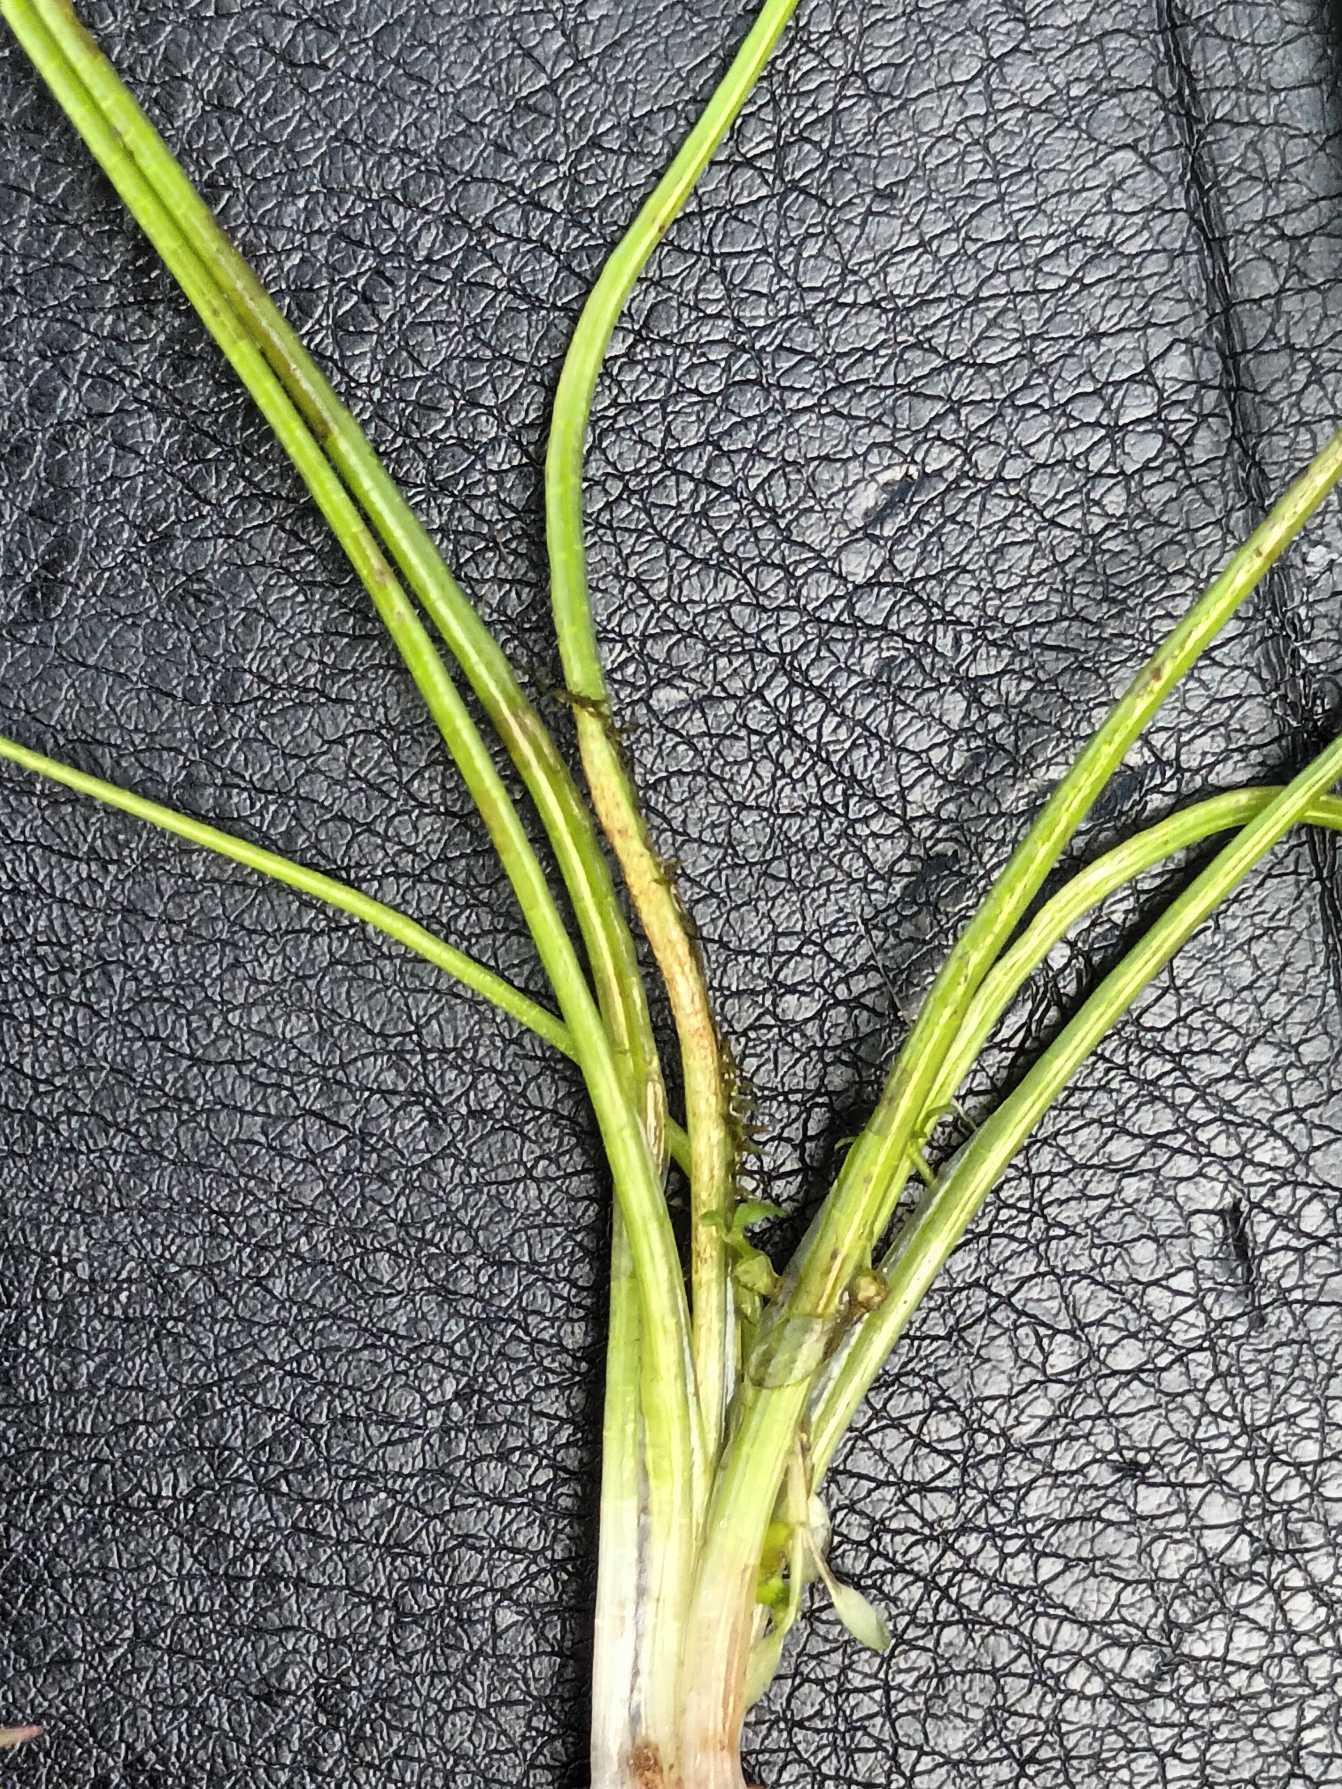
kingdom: Plantae
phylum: Tracheophyta
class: Lycopodiopsida
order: Isoetales
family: Isoetaceae
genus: Isoetes
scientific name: Isoetes echinospora
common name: Gulgrøn brasenføde
